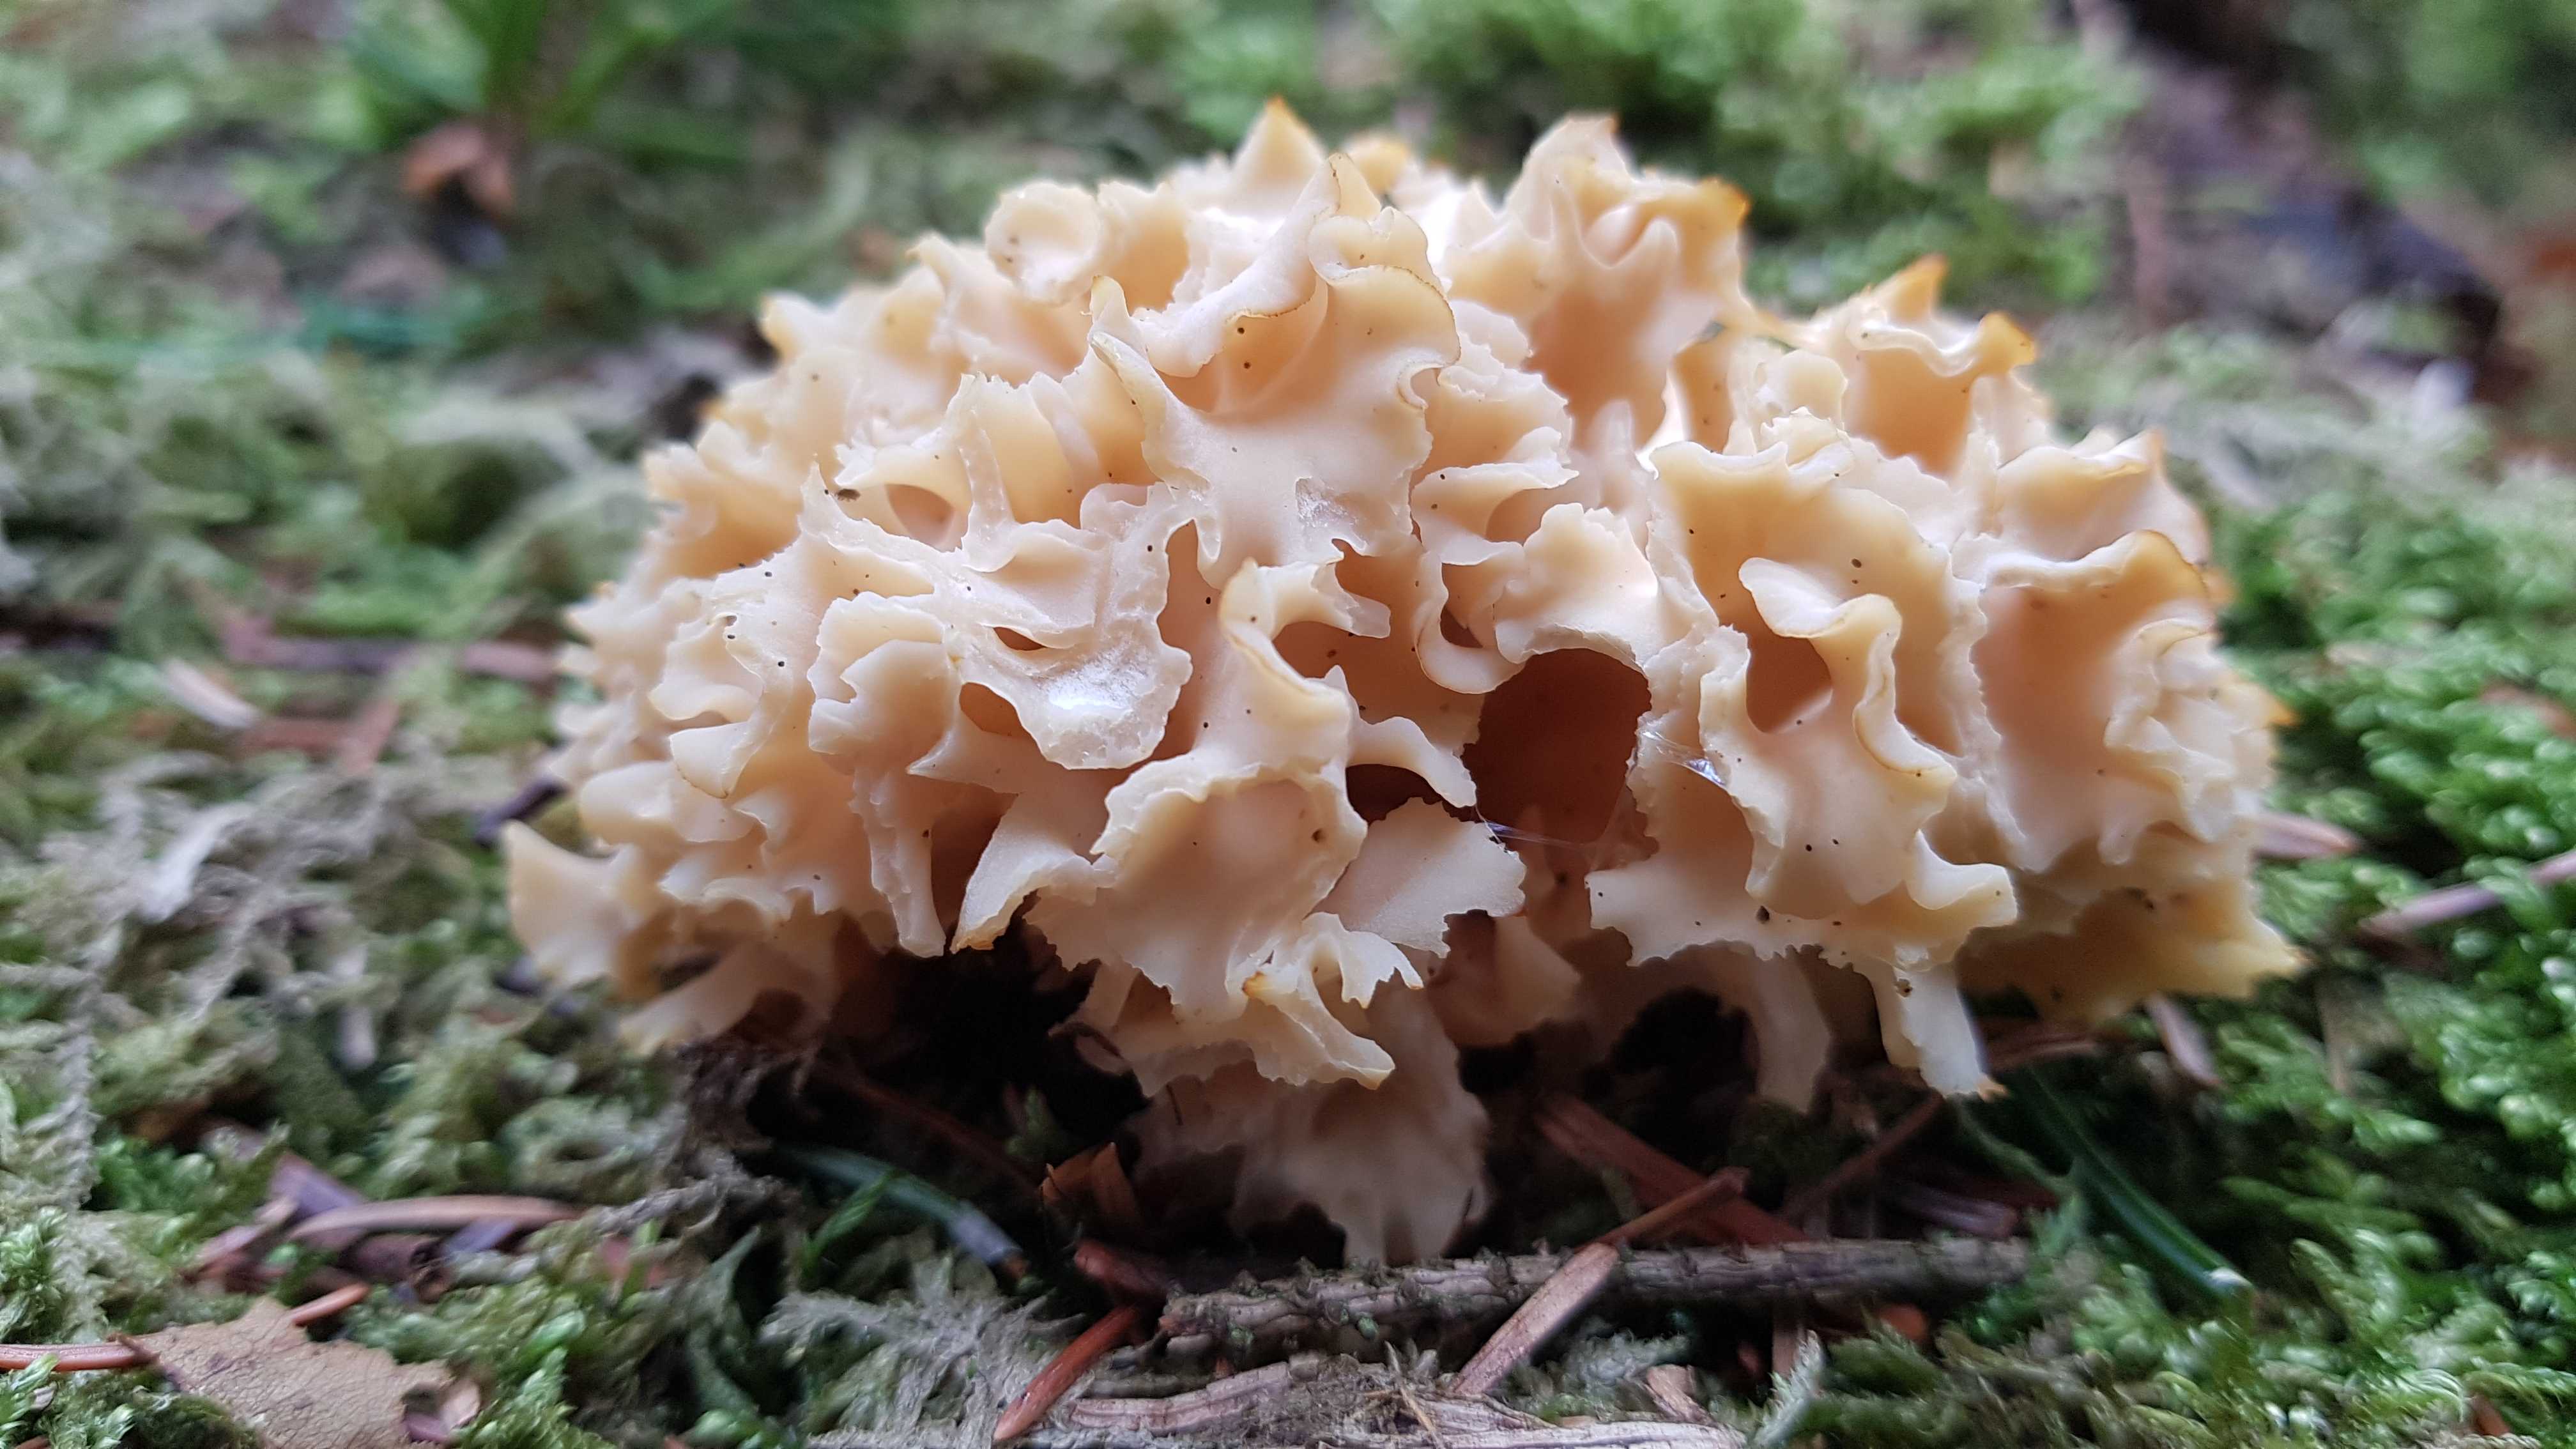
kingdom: Fungi
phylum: Basidiomycota
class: Agaricomycetes
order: Polyporales
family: Sparassidaceae
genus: Sparassis
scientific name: Sparassis crispa
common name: kruset blomkålssvamp
